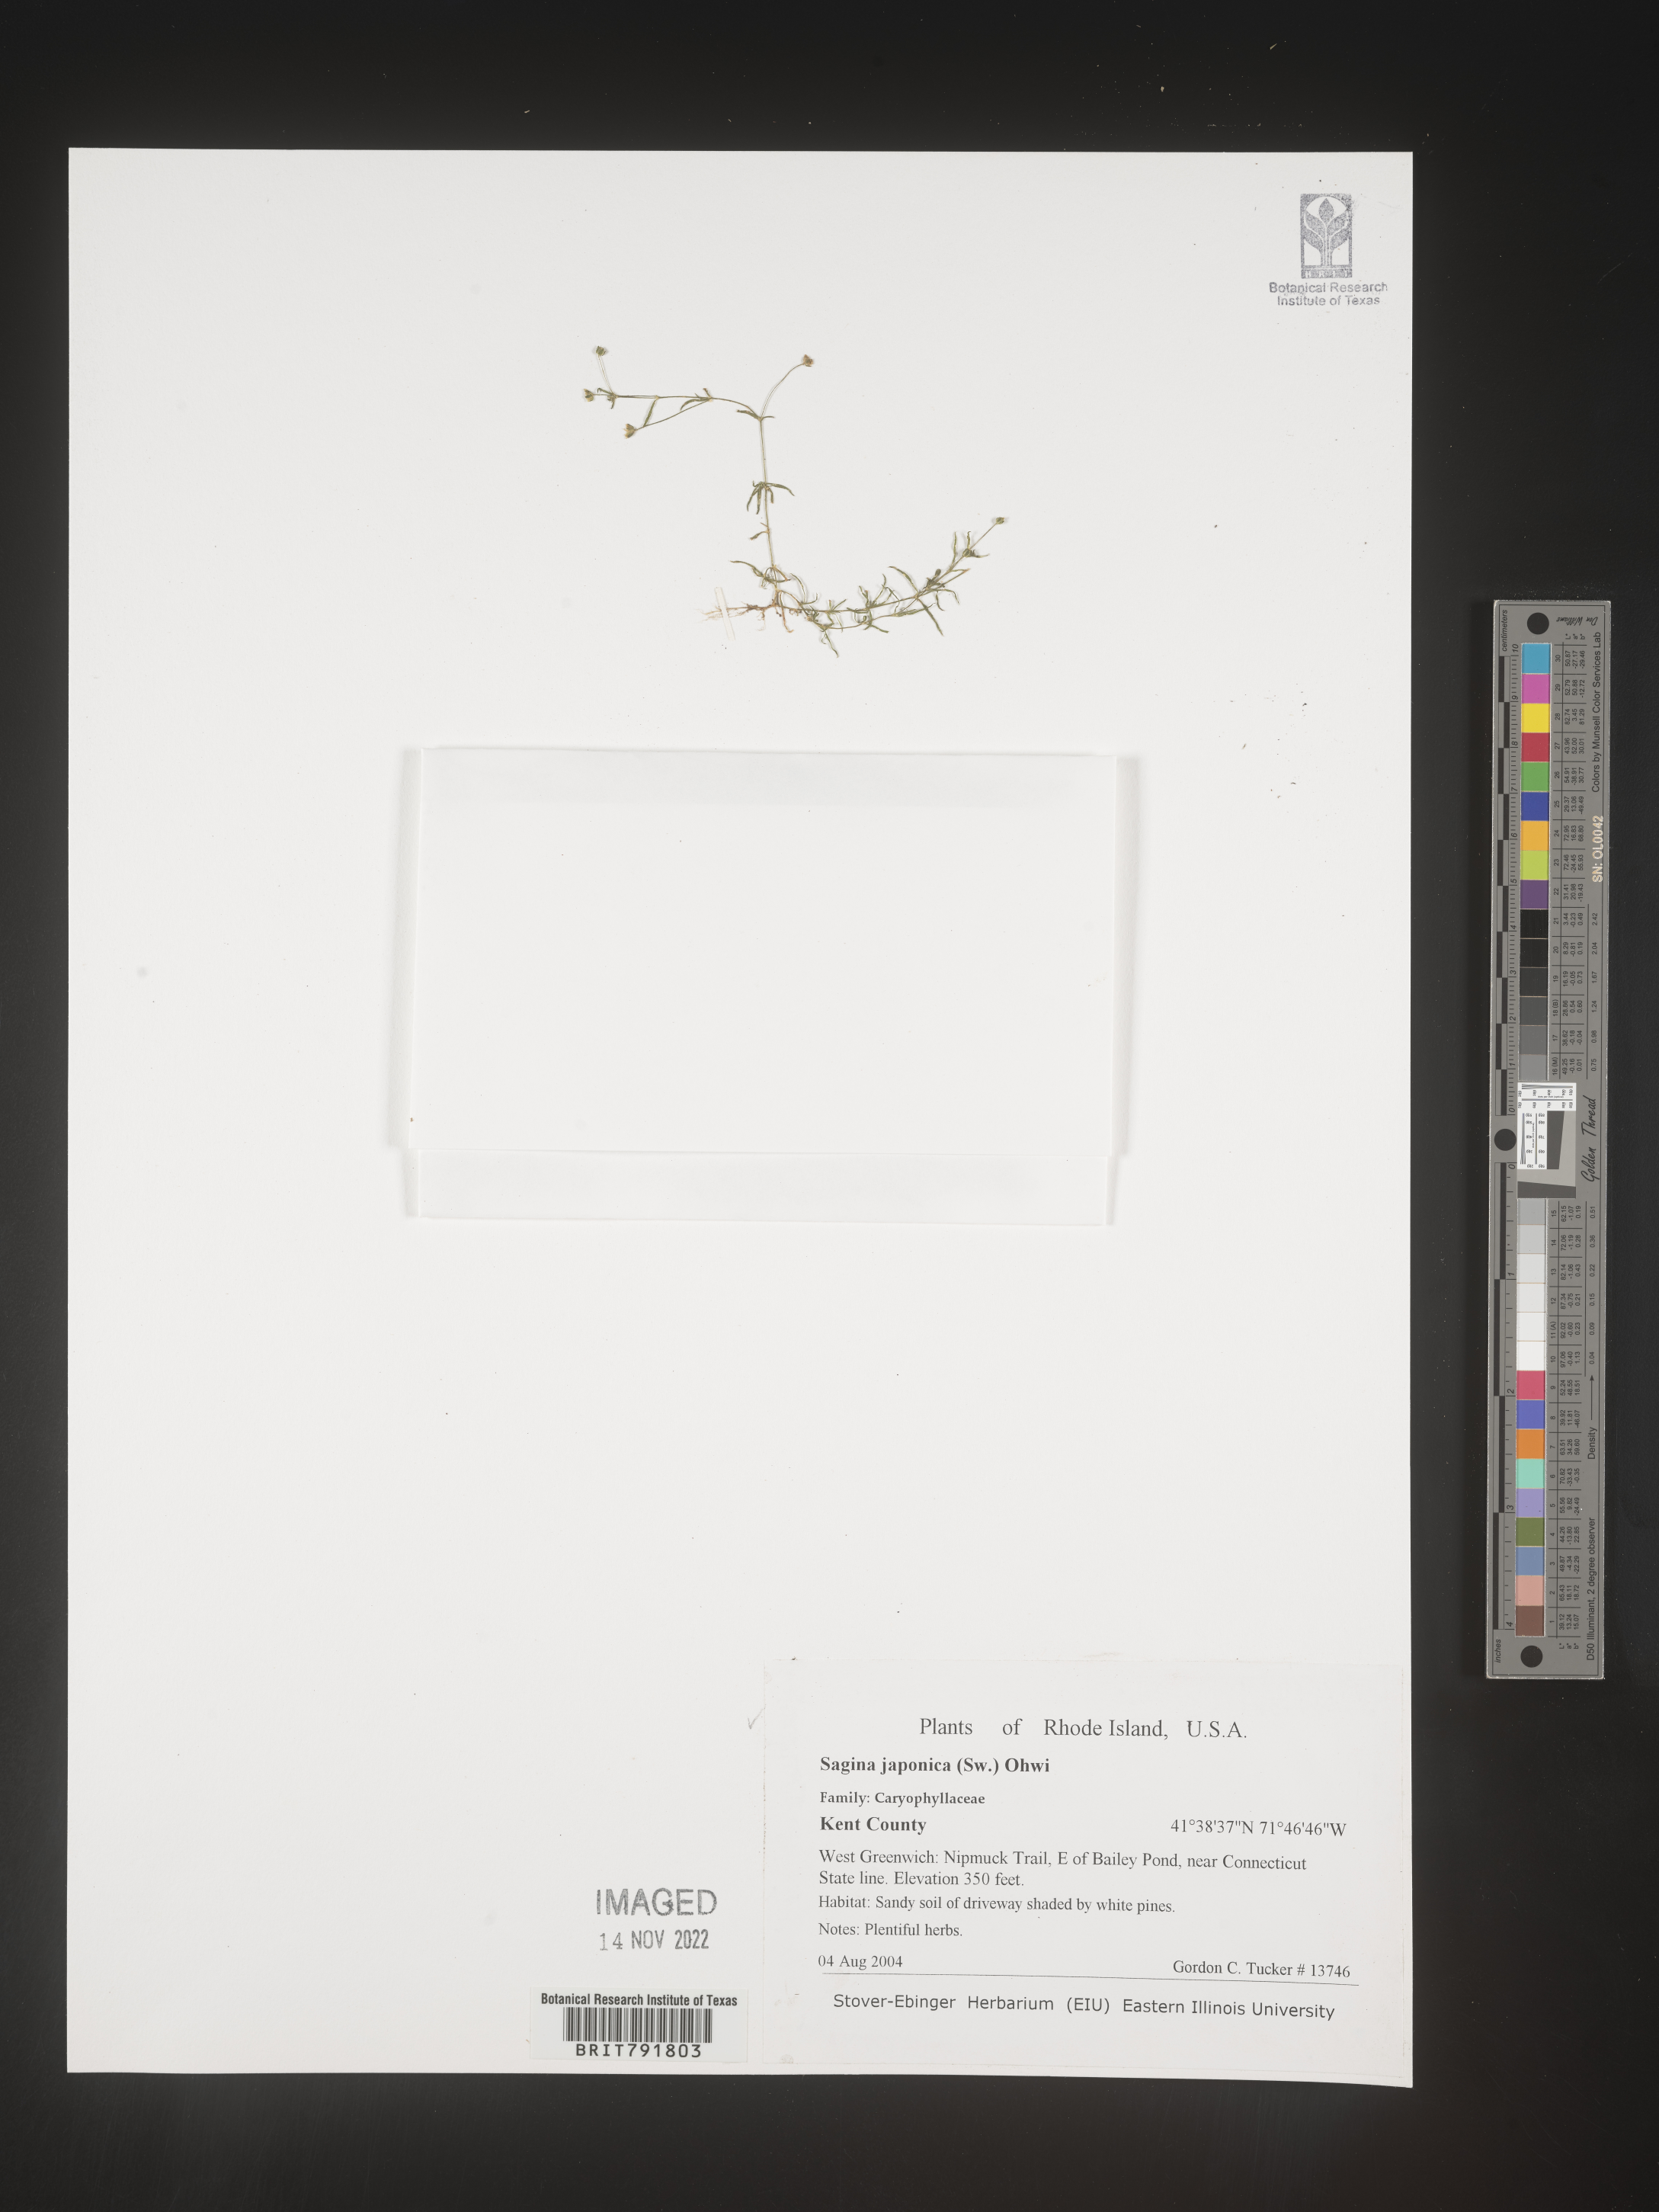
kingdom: Plantae
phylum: Tracheophyta
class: Magnoliopsida
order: Caryophyllales
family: Caryophyllaceae
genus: Sagina
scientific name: Sagina
